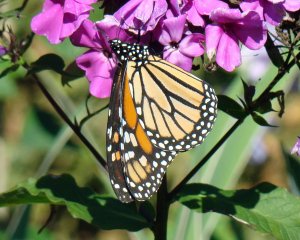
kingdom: Animalia
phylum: Arthropoda
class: Insecta
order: Lepidoptera
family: Nymphalidae
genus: Danaus
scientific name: Danaus plexippus
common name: Monarch
